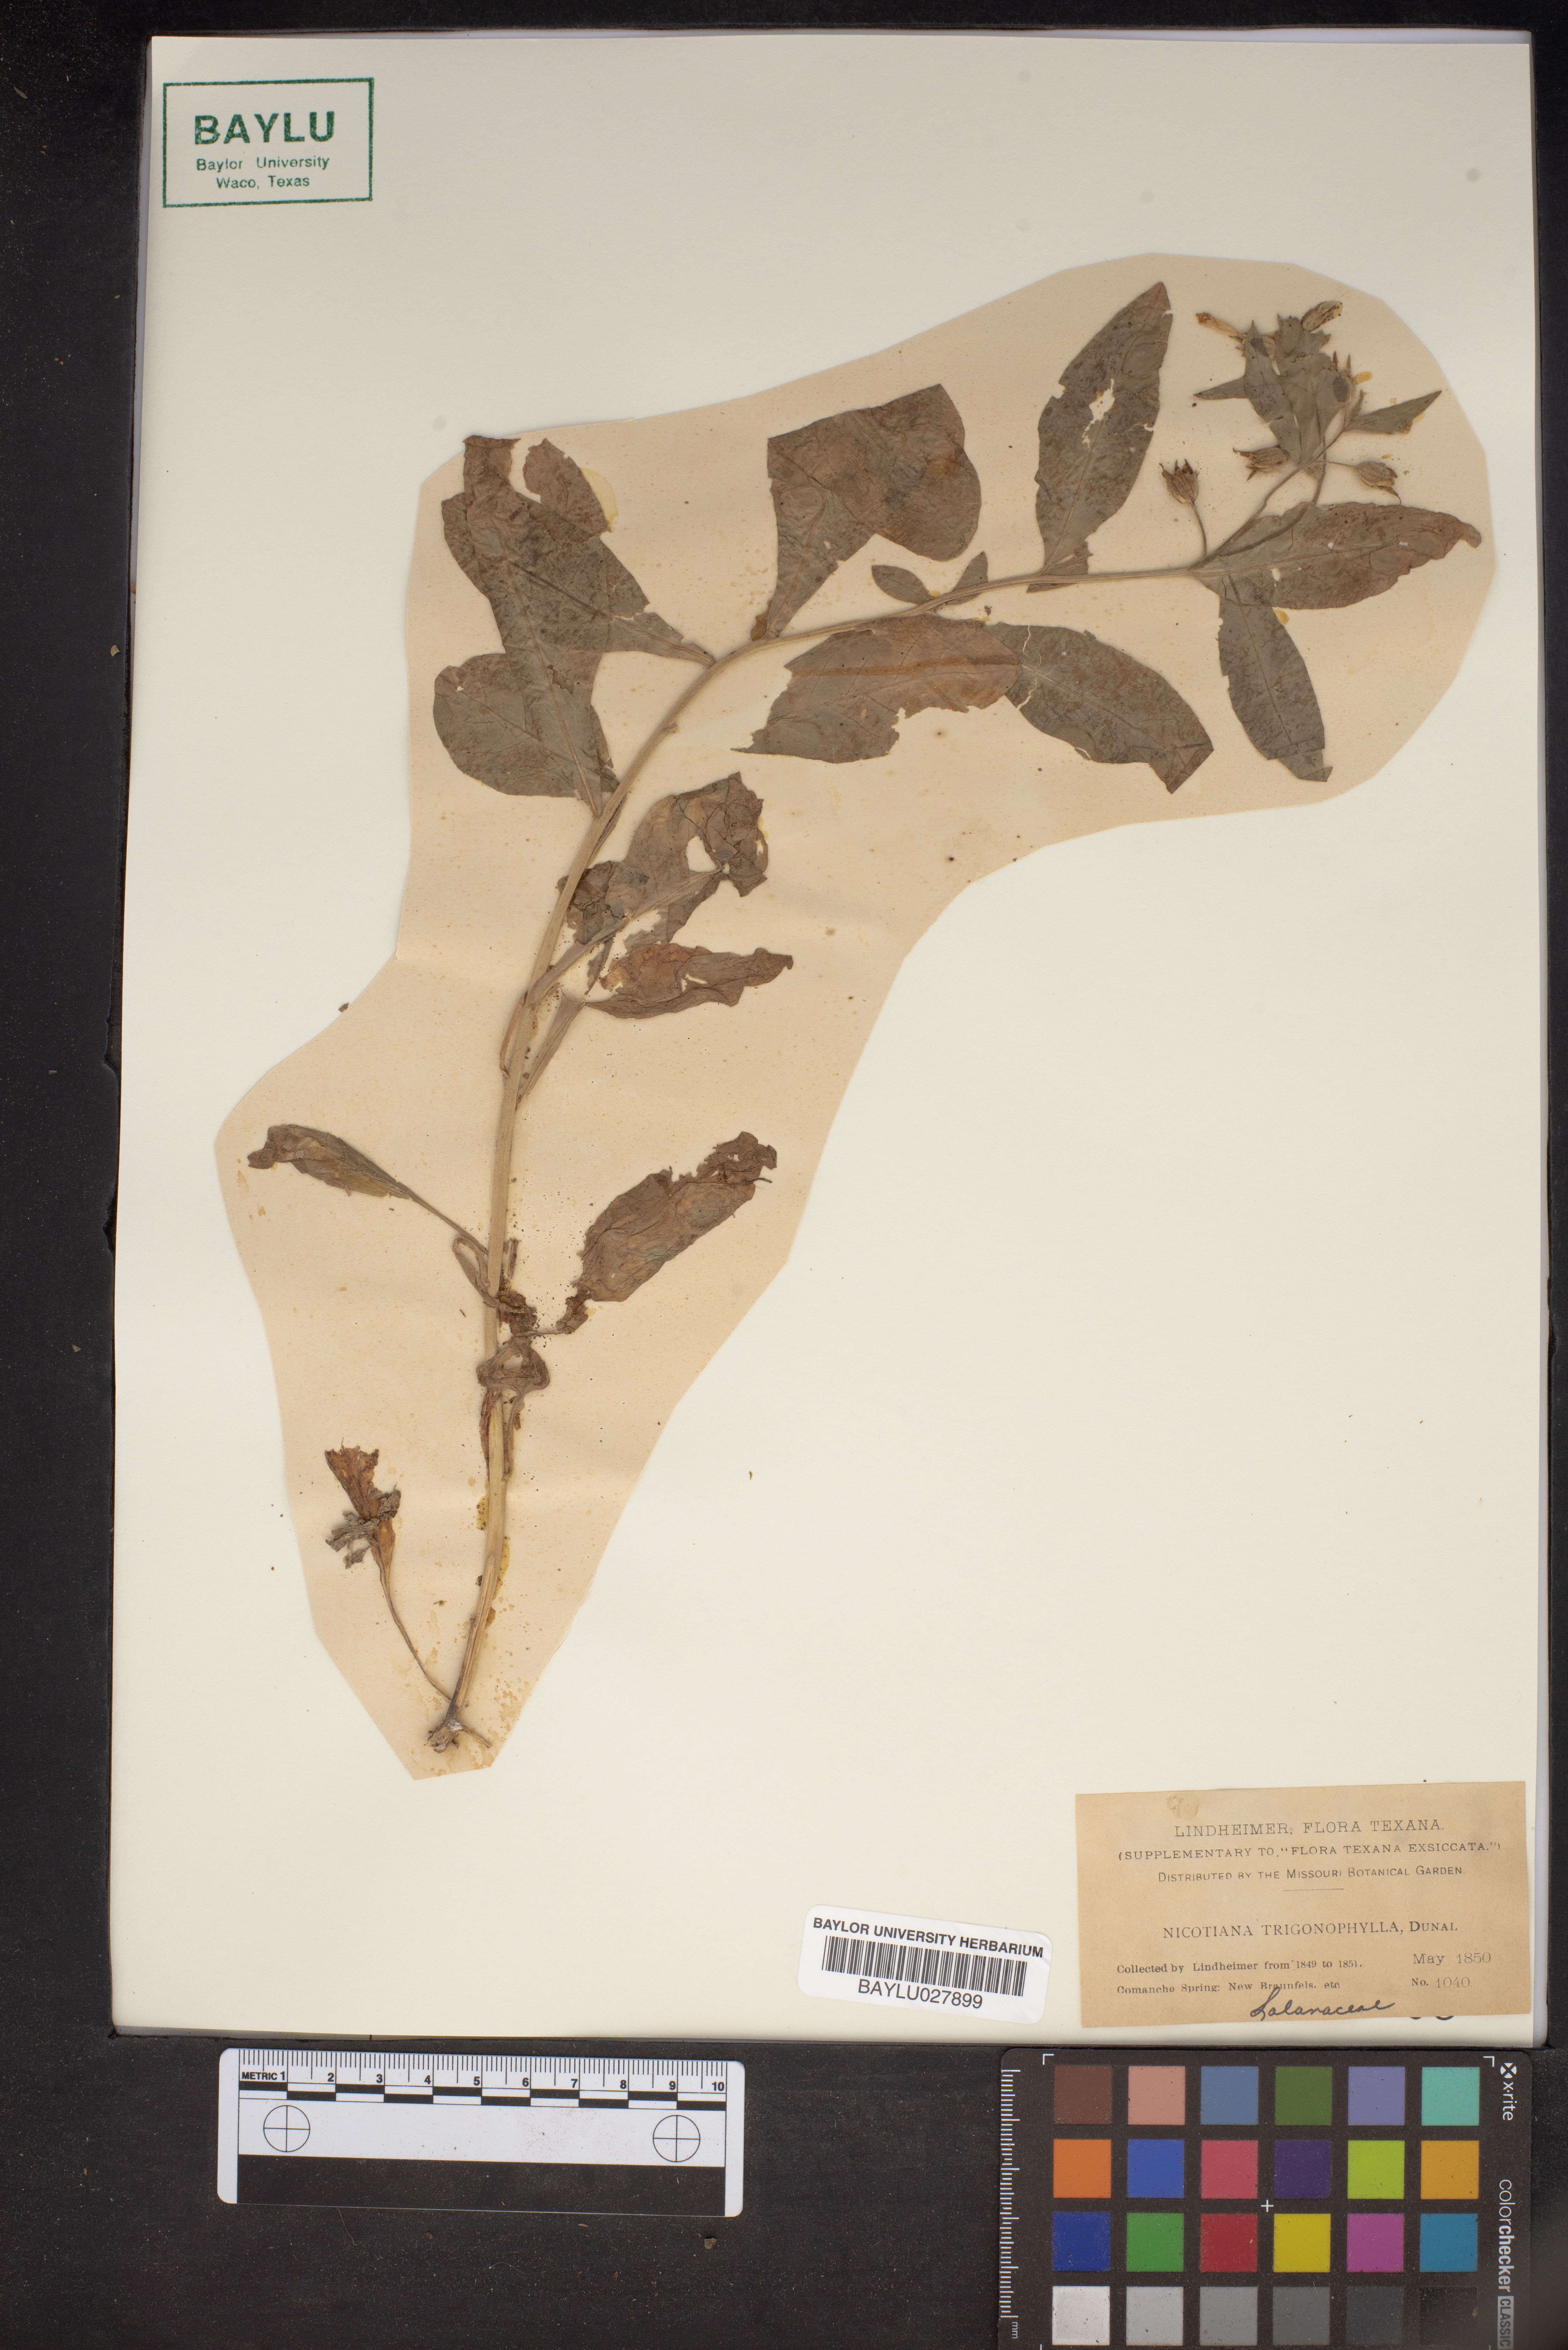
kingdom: Plantae
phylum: Tracheophyta
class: Magnoliopsida
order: Solanales
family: Solanaceae
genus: Nicotiana
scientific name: Nicotiana obtusifolia
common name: Desert tobacco
